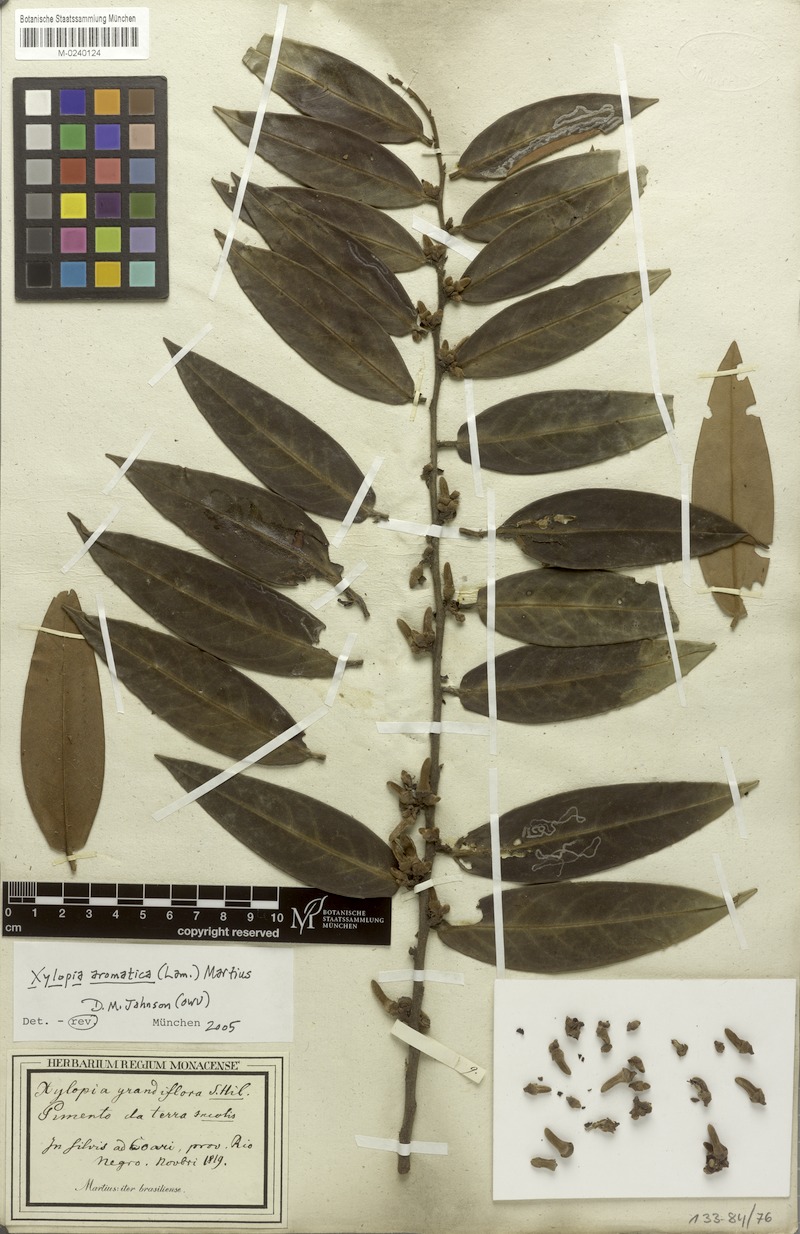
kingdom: Plantae
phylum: Tracheophyta
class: Magnoliopsida
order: Magnoliales
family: Annonaceae
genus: Xylopia
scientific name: Xylopia aromatica
